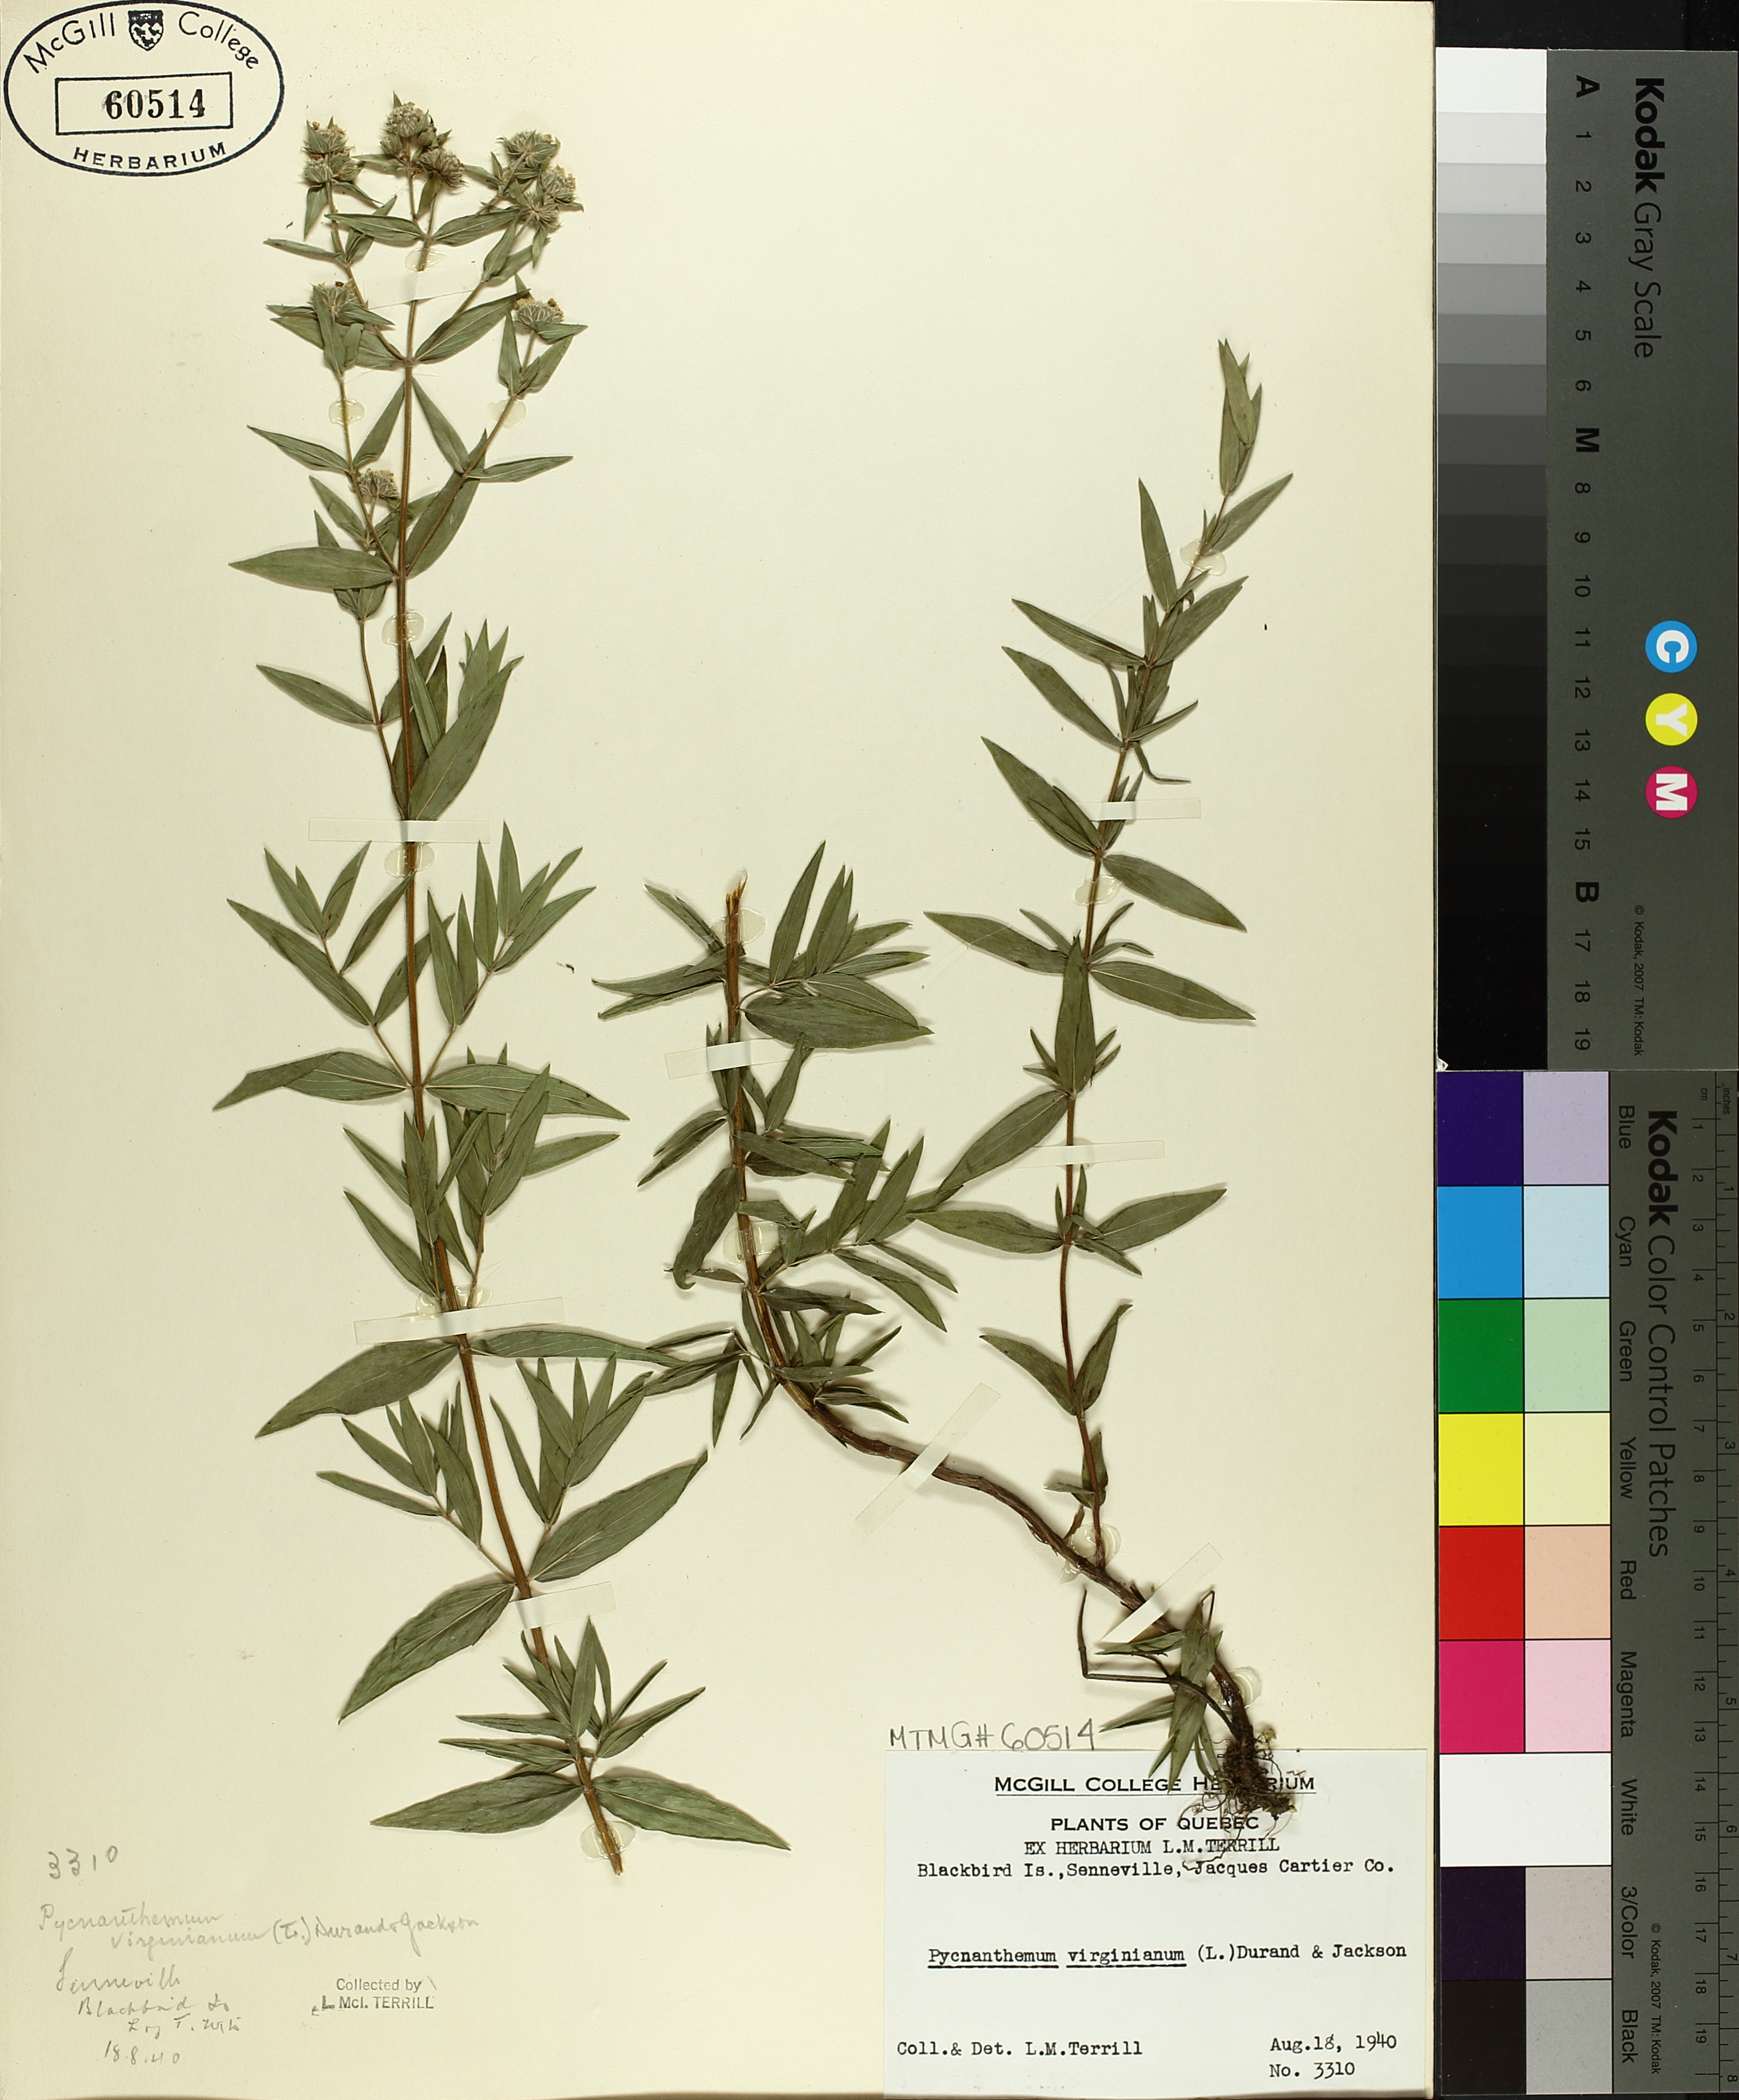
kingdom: Plantae
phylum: Tracheophyta
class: Magnoliopsida
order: Lamiales
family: Lamiaceae
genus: Pycnanthemum
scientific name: Pycnanthemum virginianum
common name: Virginia mountain-mint
